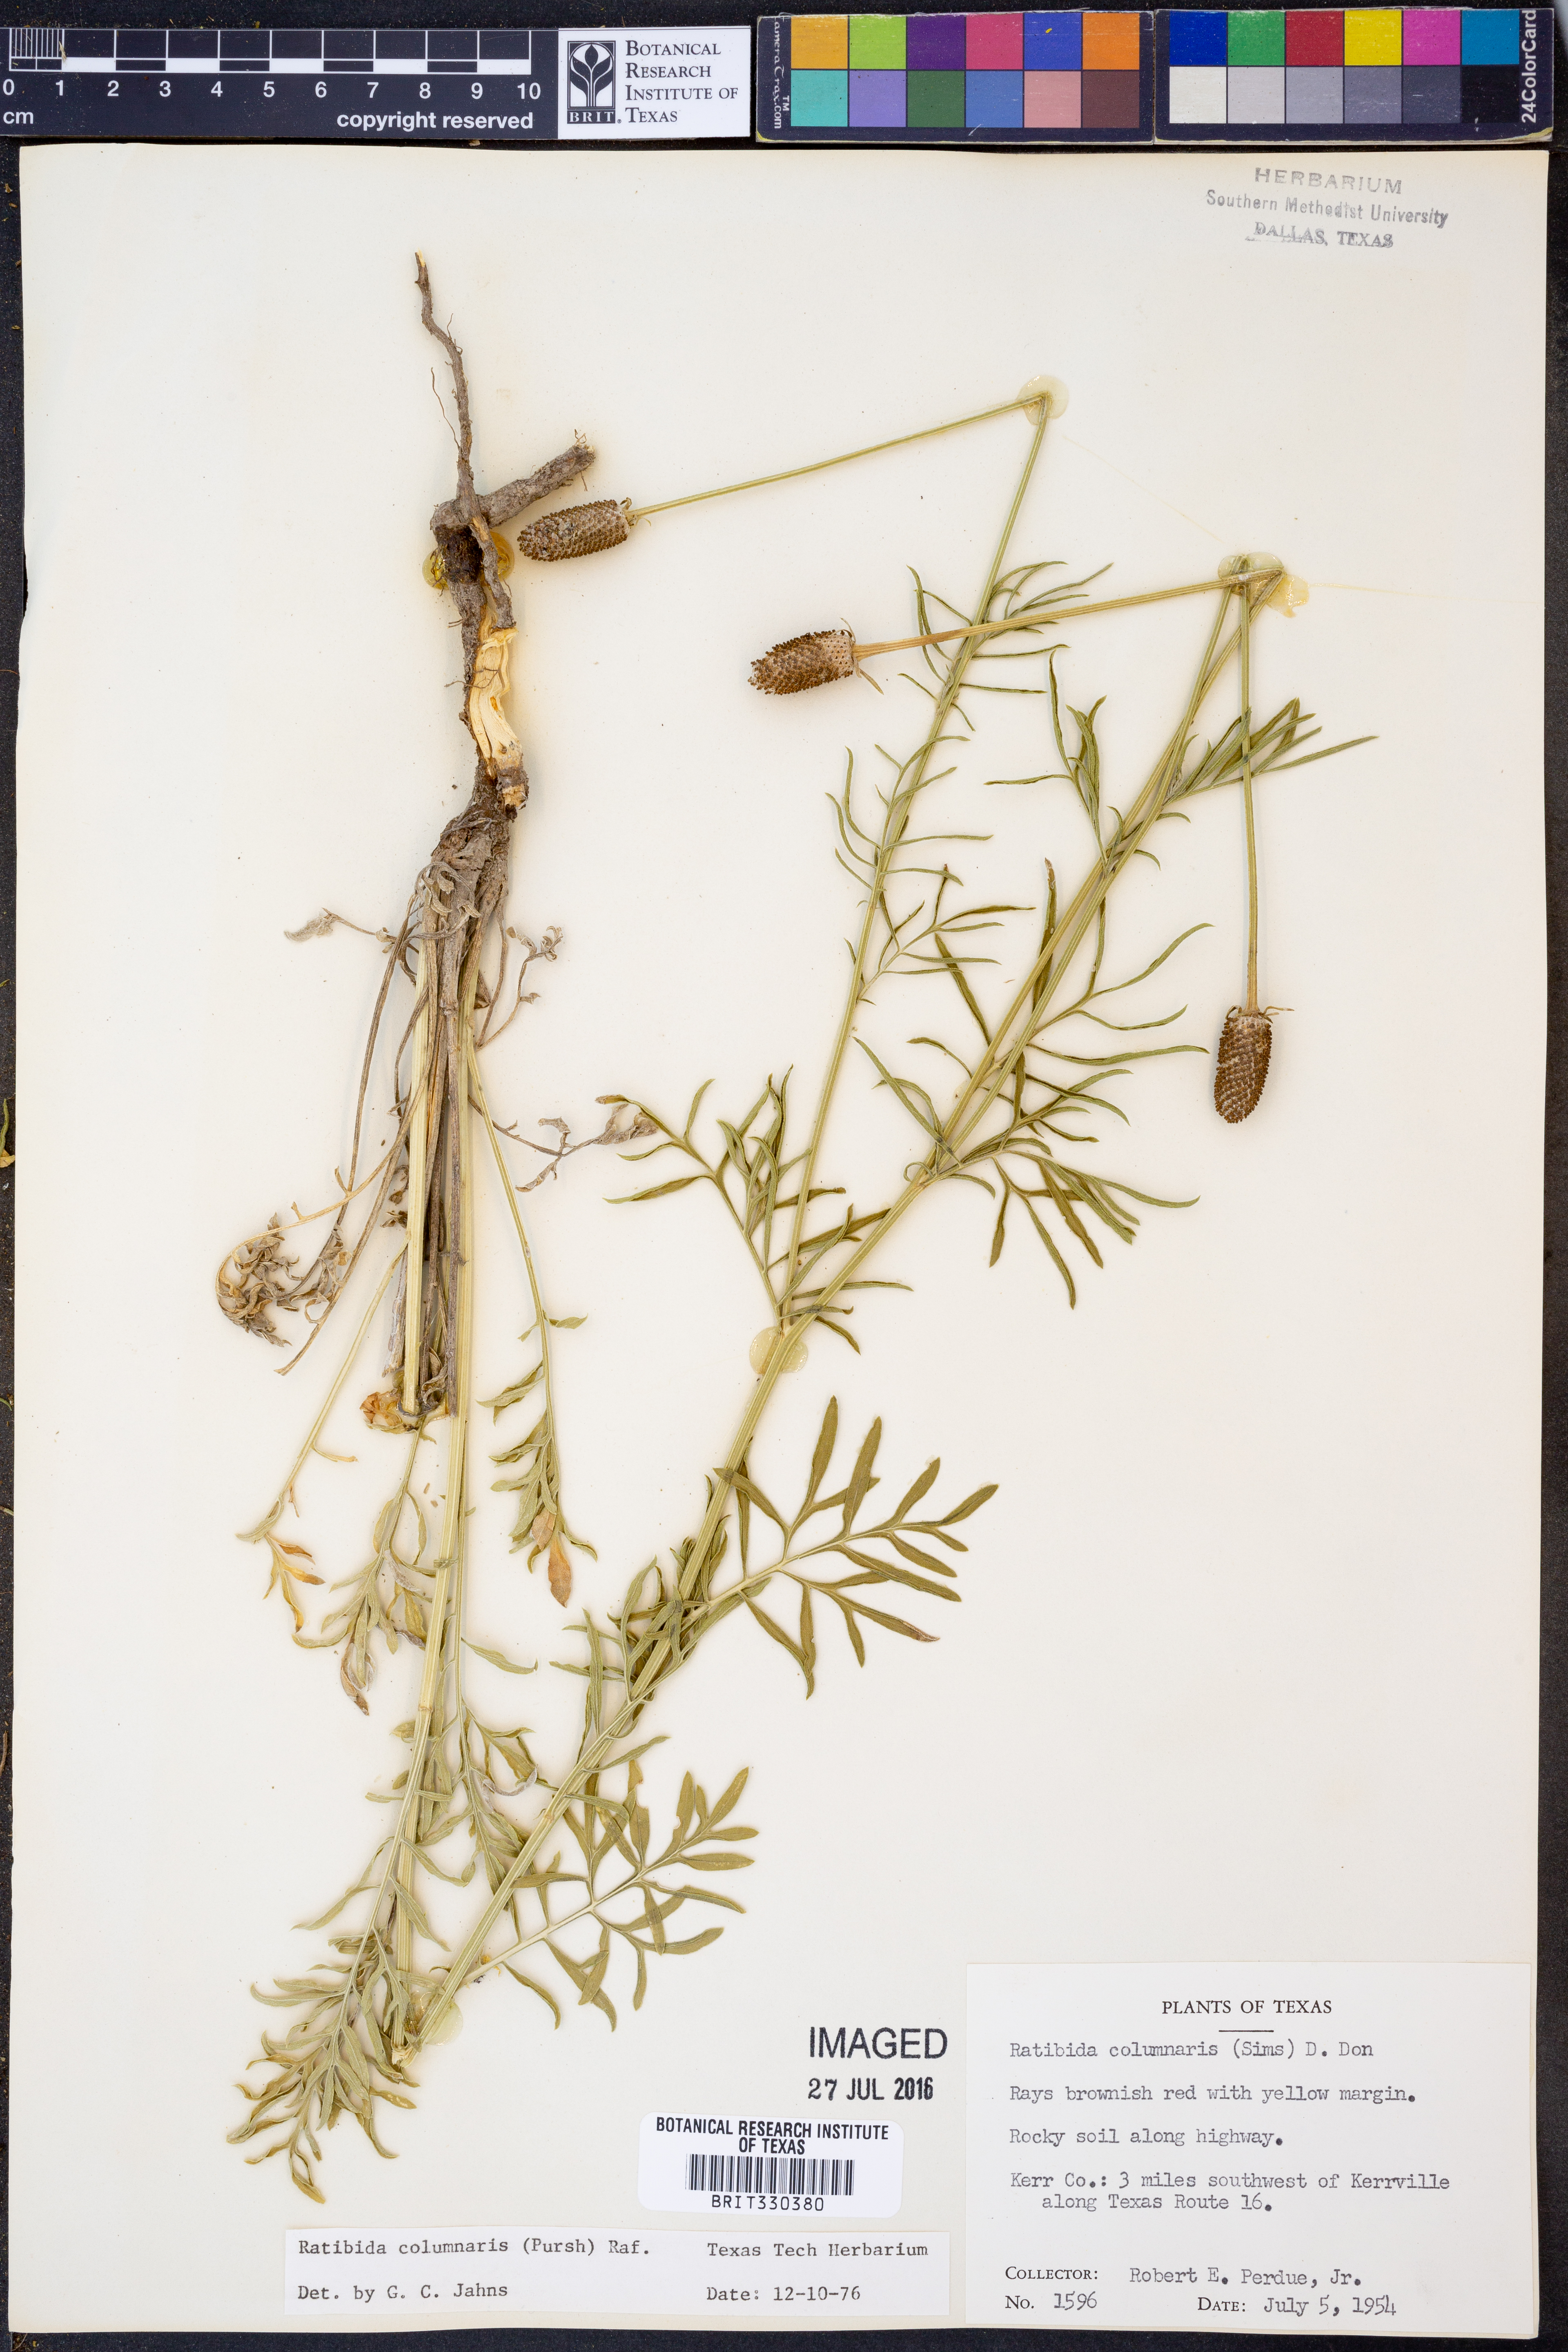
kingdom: Plantae
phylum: Tracheophyta
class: Magnoliopsida
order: Asterales
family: Asteraceae
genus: Ratibida
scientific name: Ratibida columnifera
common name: Prairie coneflower
